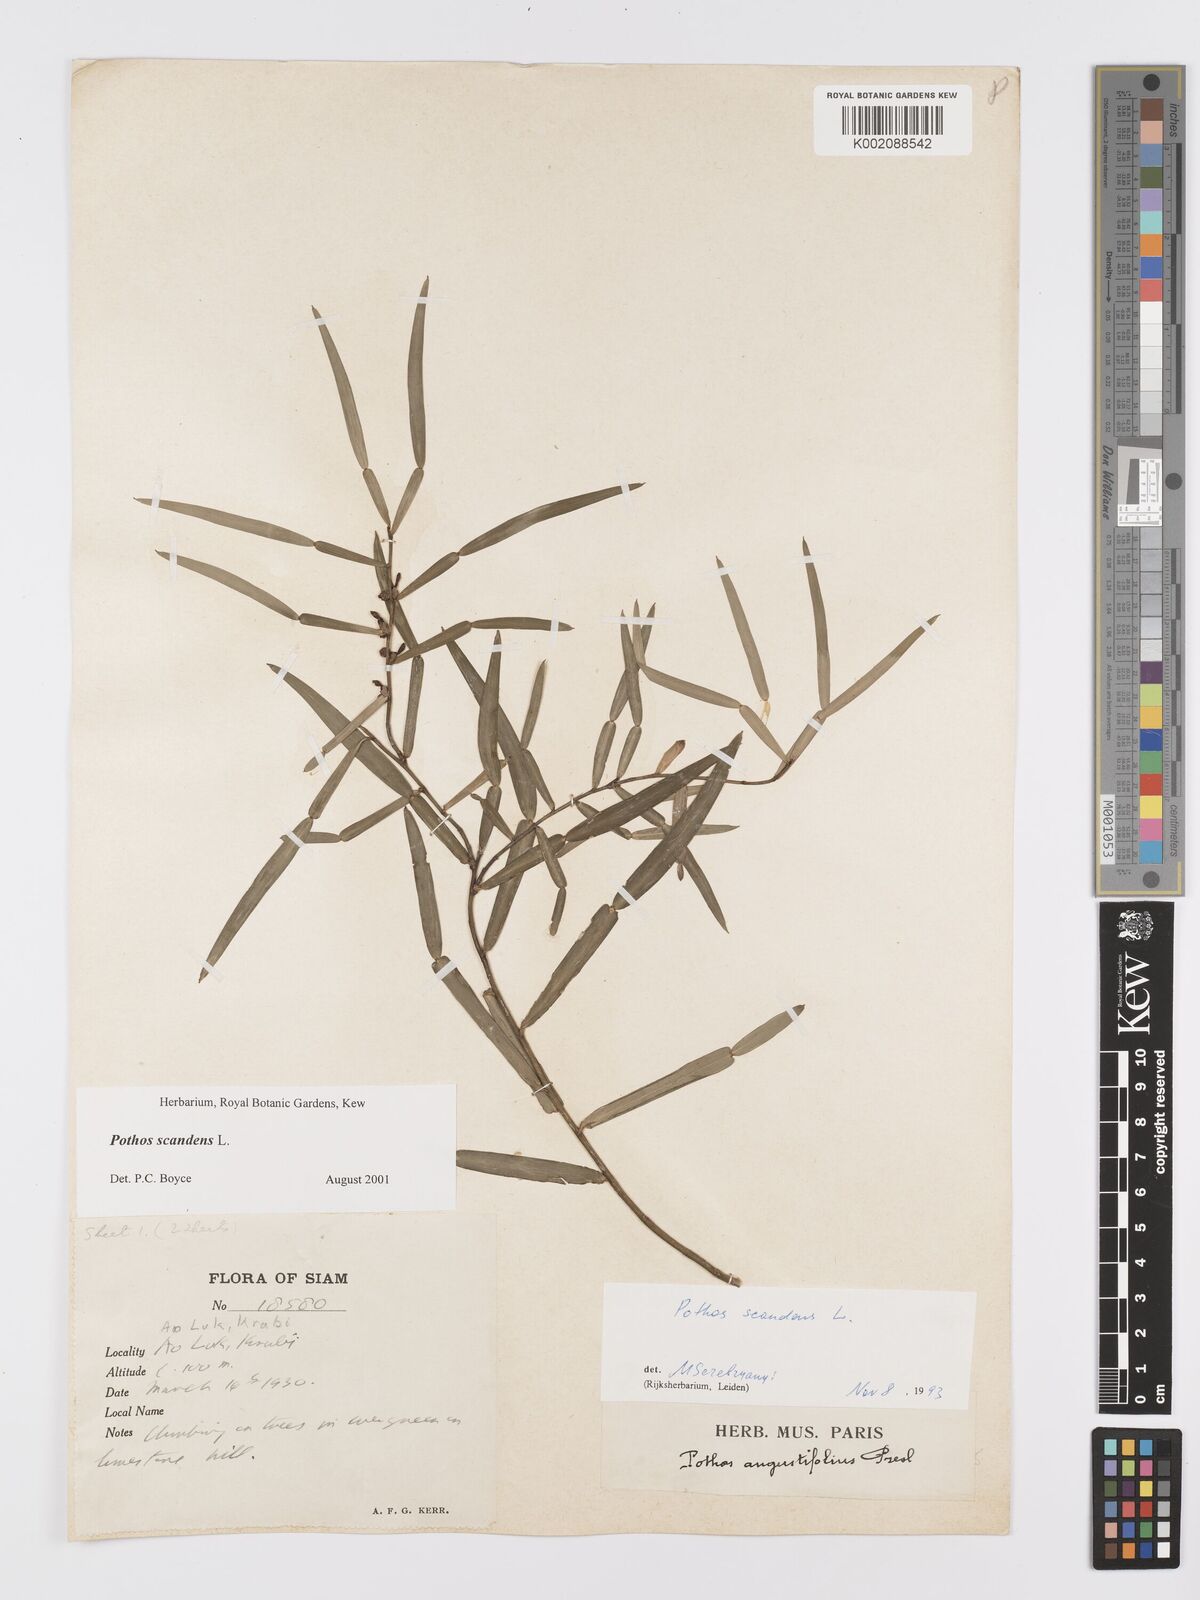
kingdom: Plantae
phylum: Tracheophyta
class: Liliopsida
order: Alismatales
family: Araceae
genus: Pothos
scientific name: Pothos scandens
